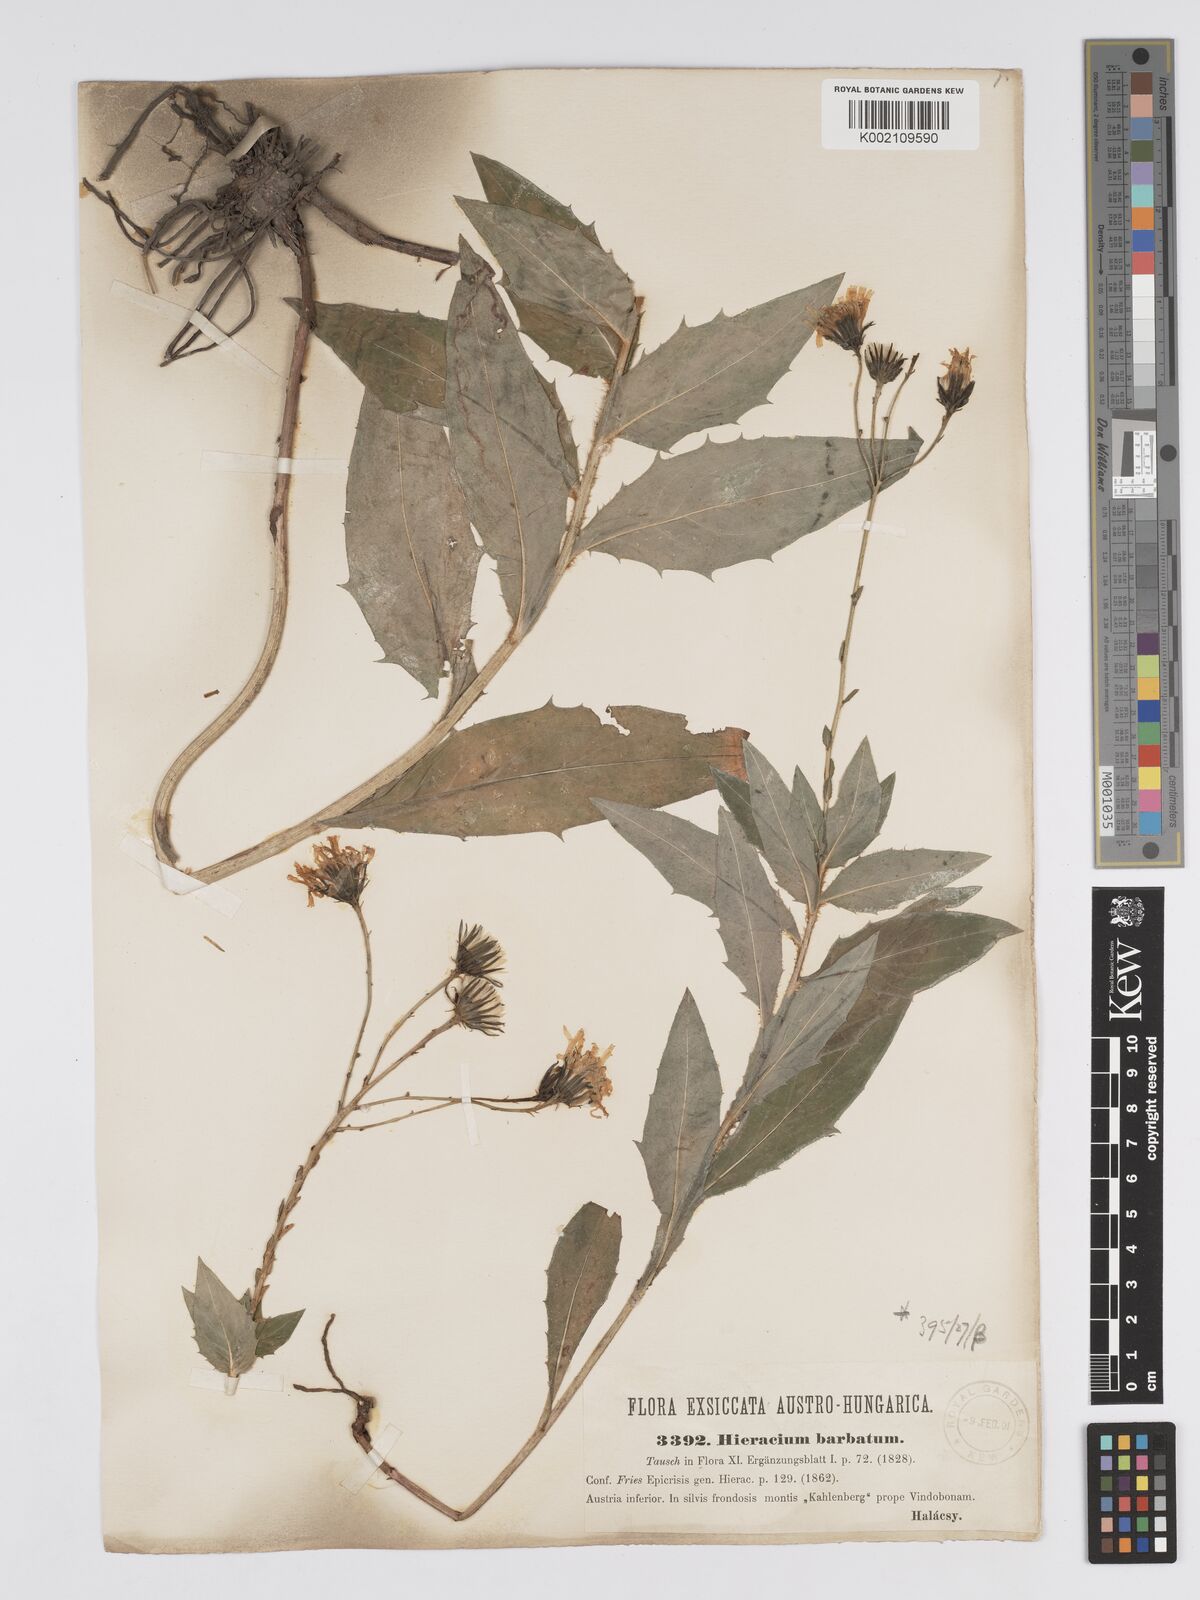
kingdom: Plantae
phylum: Tracheophyta
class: Magnoliopsida
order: Asterales
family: Asteraceae
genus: Hieracium
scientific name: Hieracium racemosum
